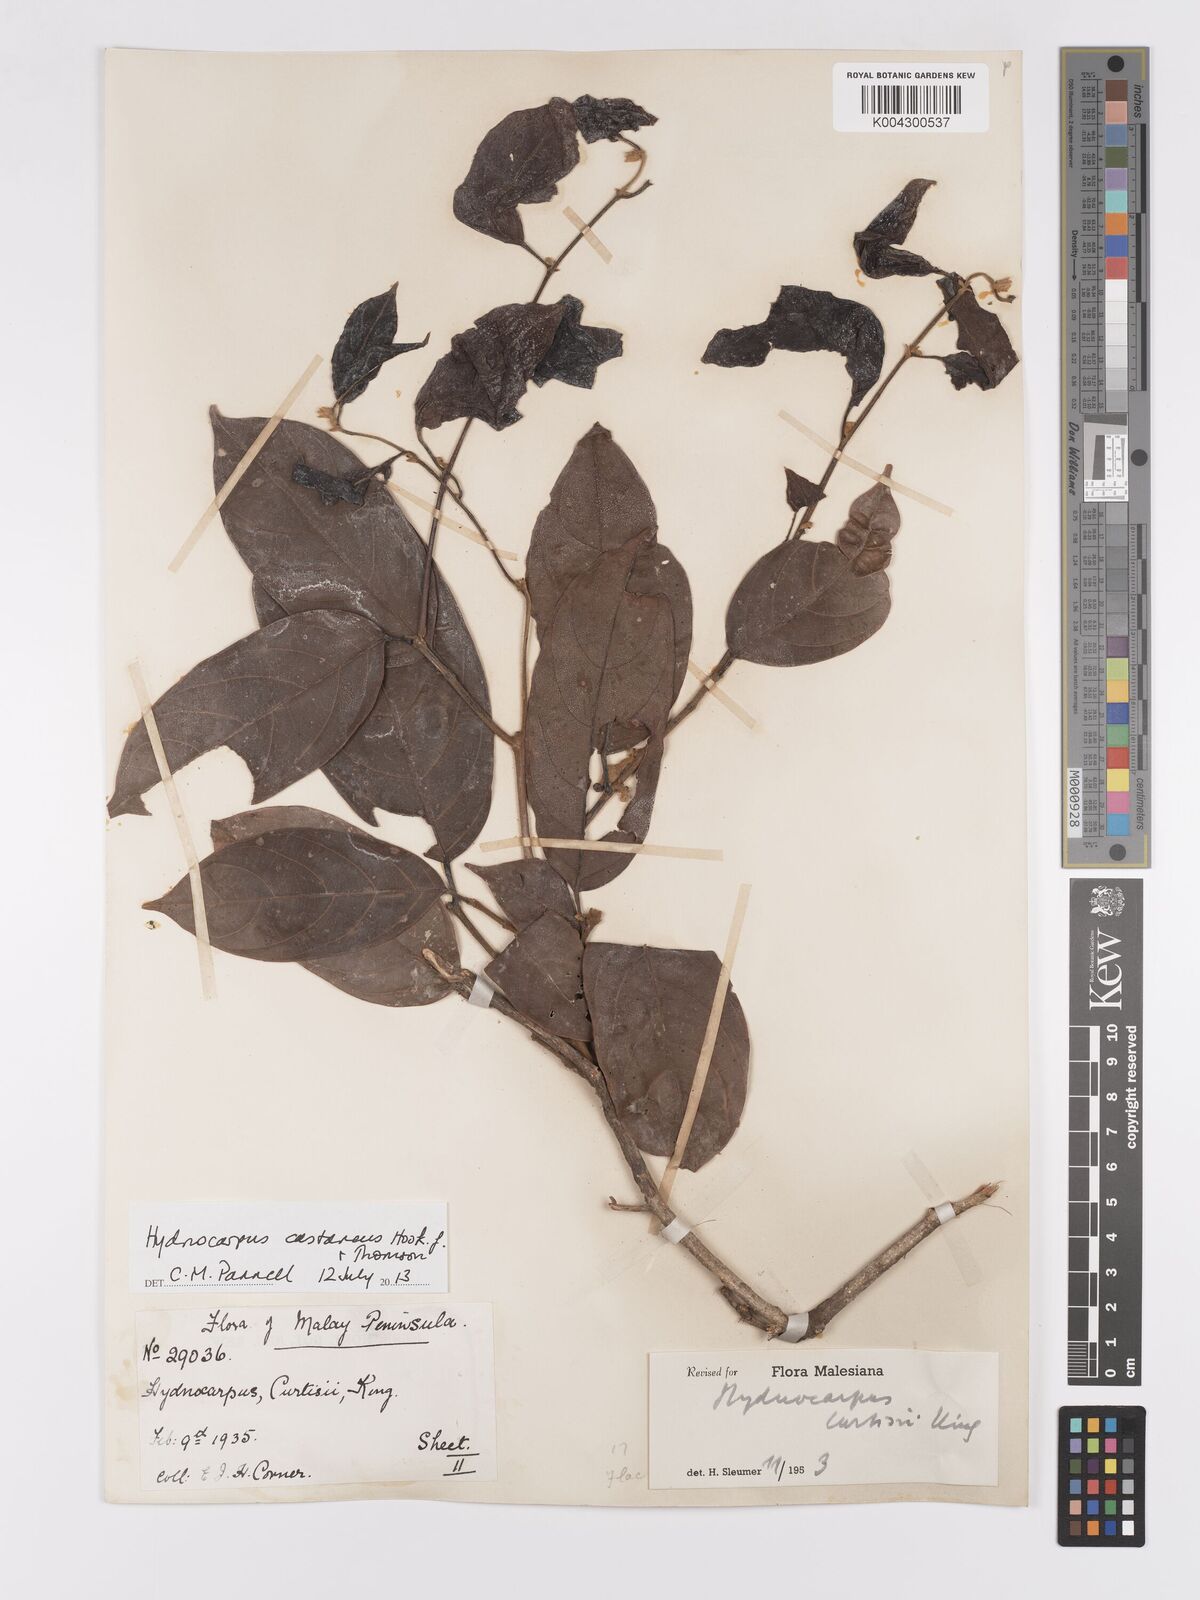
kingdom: Plantae
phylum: Tracheophyta
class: Magnoliopsida
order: Malpighiales
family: Achariaceae
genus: Hydnocarpus
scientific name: Hydnocarpus curtisii
